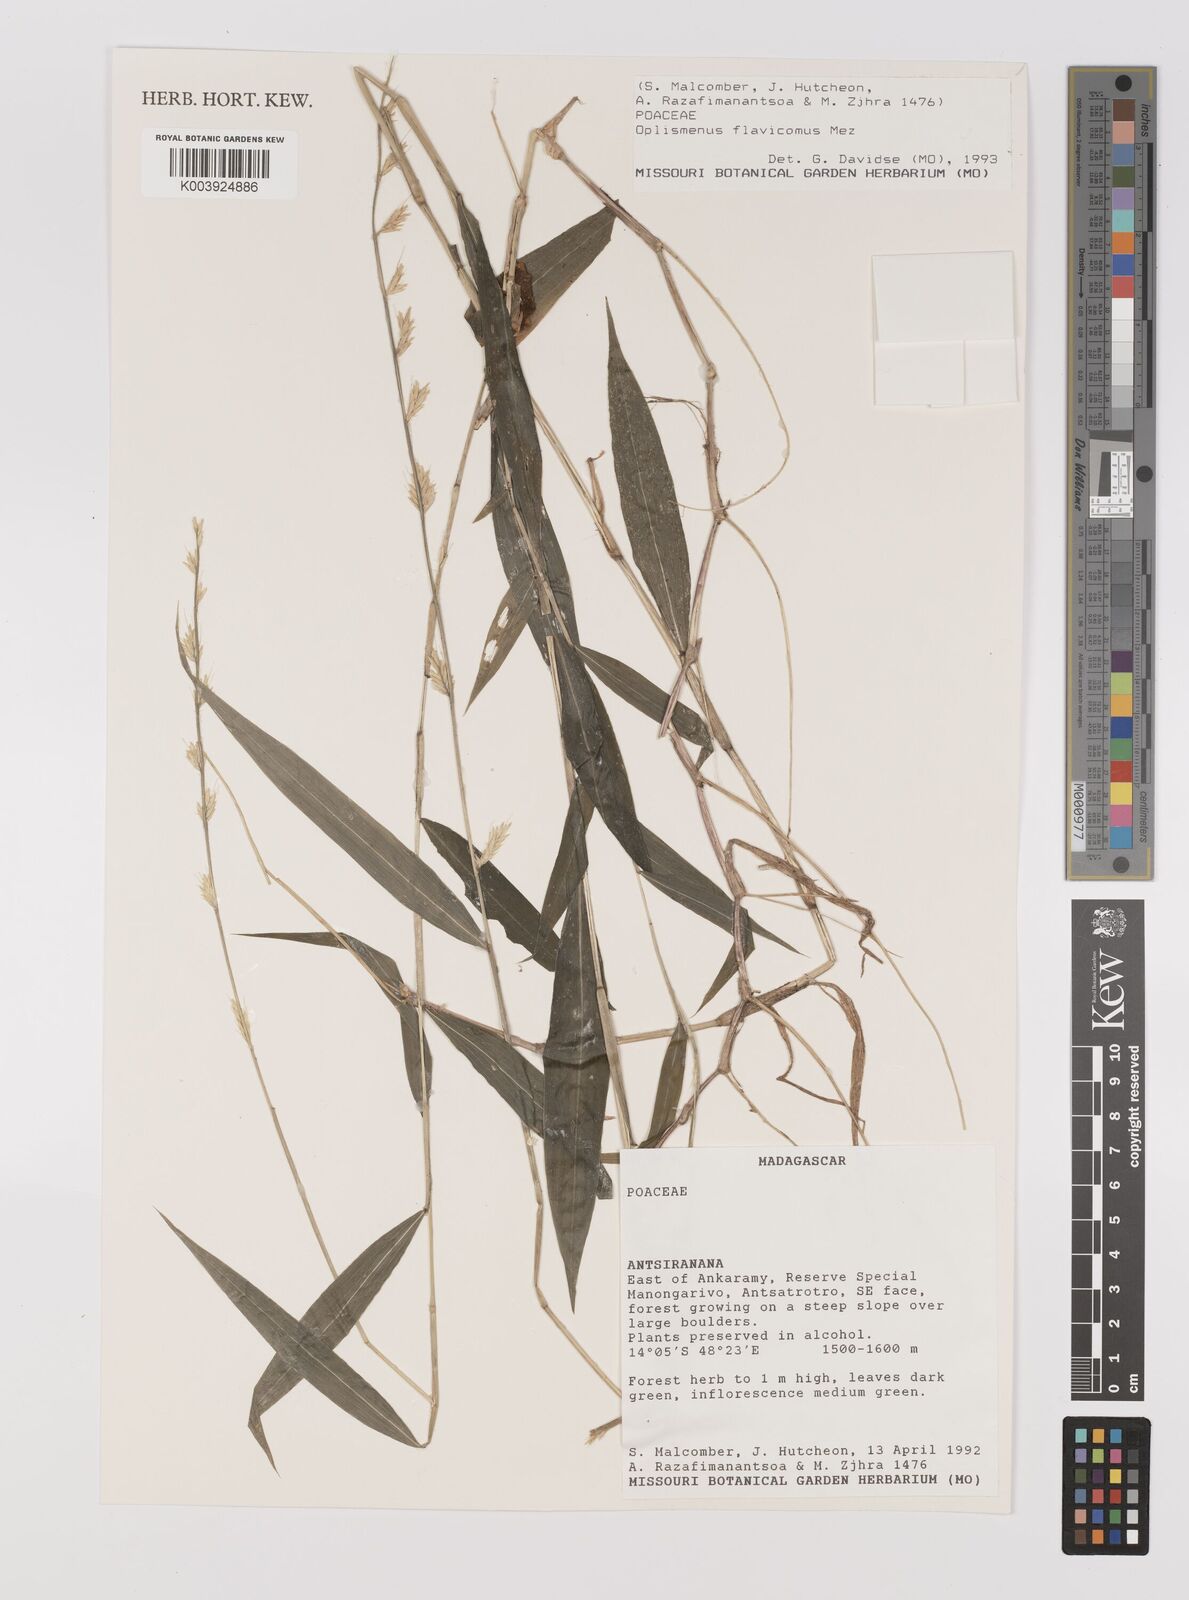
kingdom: Plantae
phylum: Tracheophyta
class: Liliopsida
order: Poales
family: Poaceae
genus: Oplismenus
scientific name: Oplismenus flavicomus
